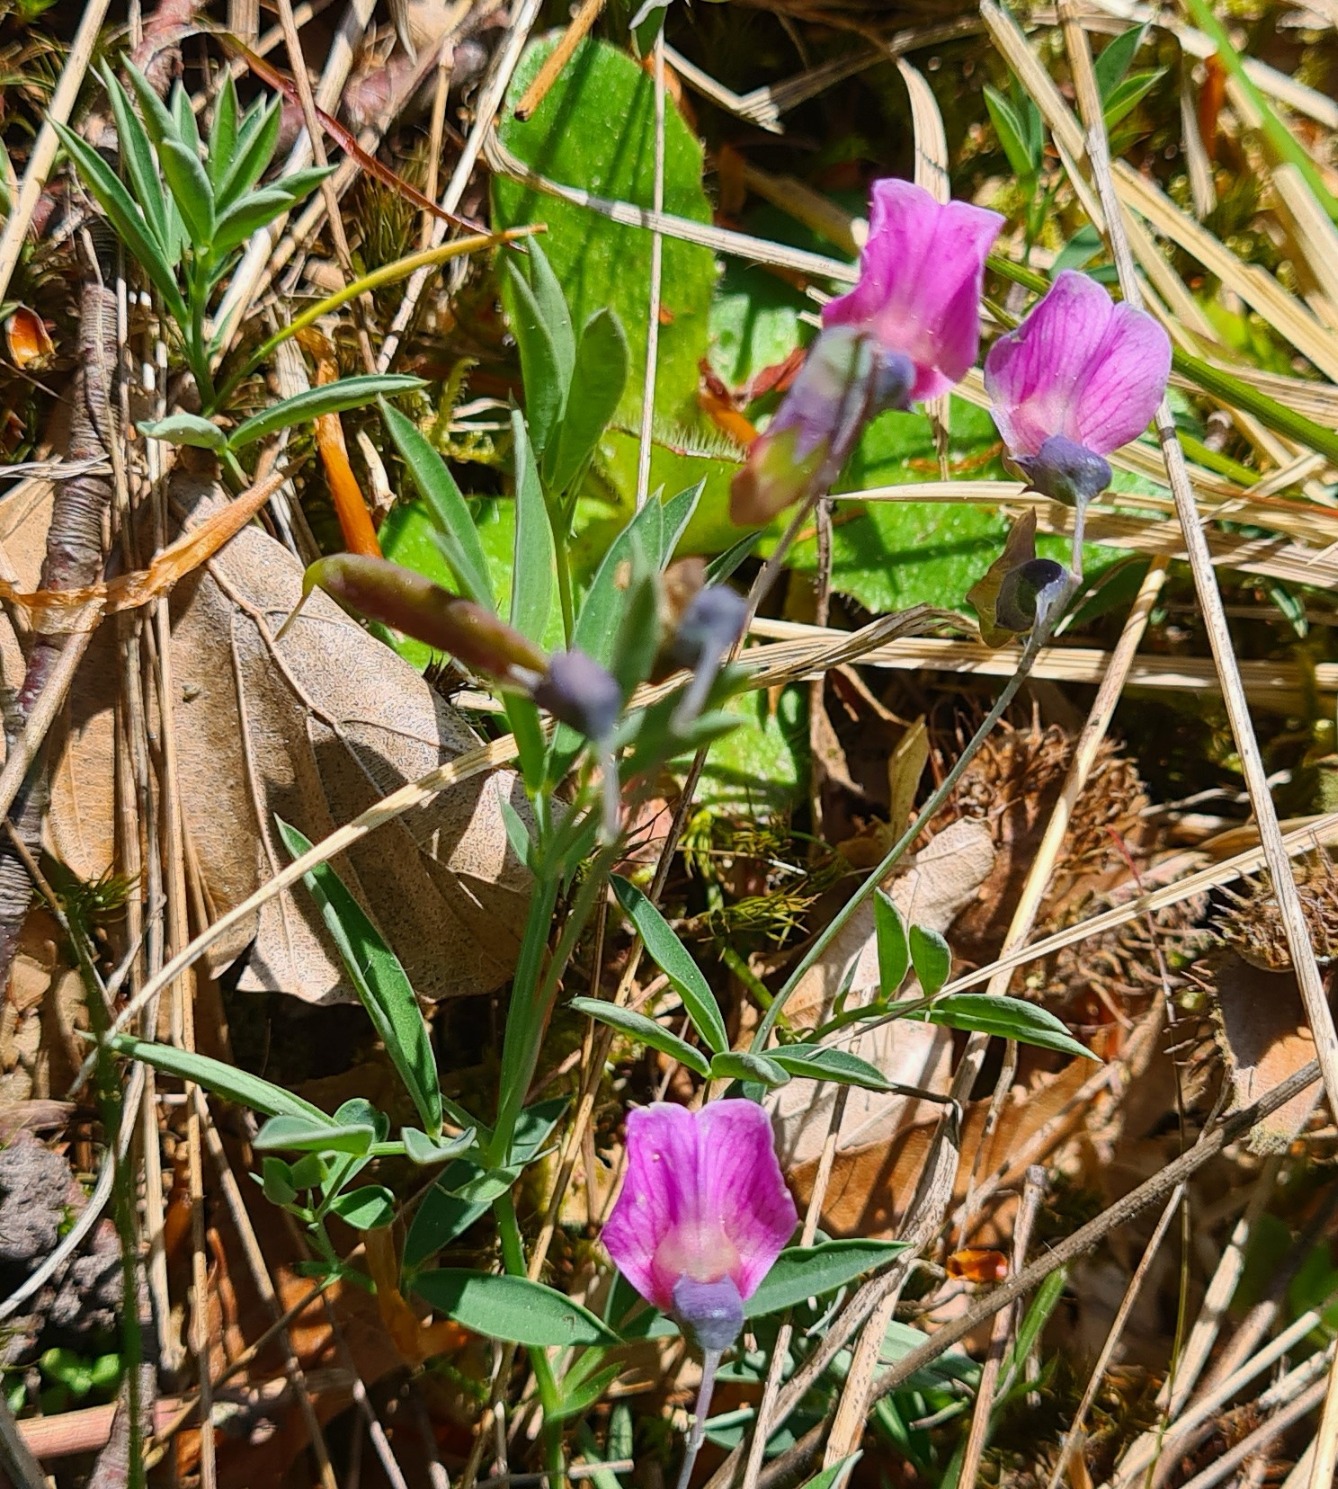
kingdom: Plantae
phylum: Tracheophyta
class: Magnoliopsida
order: Fabales
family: Fabaceae
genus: Lathyrus
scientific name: Lathyrus linifolius
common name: Krat-fladbælg
